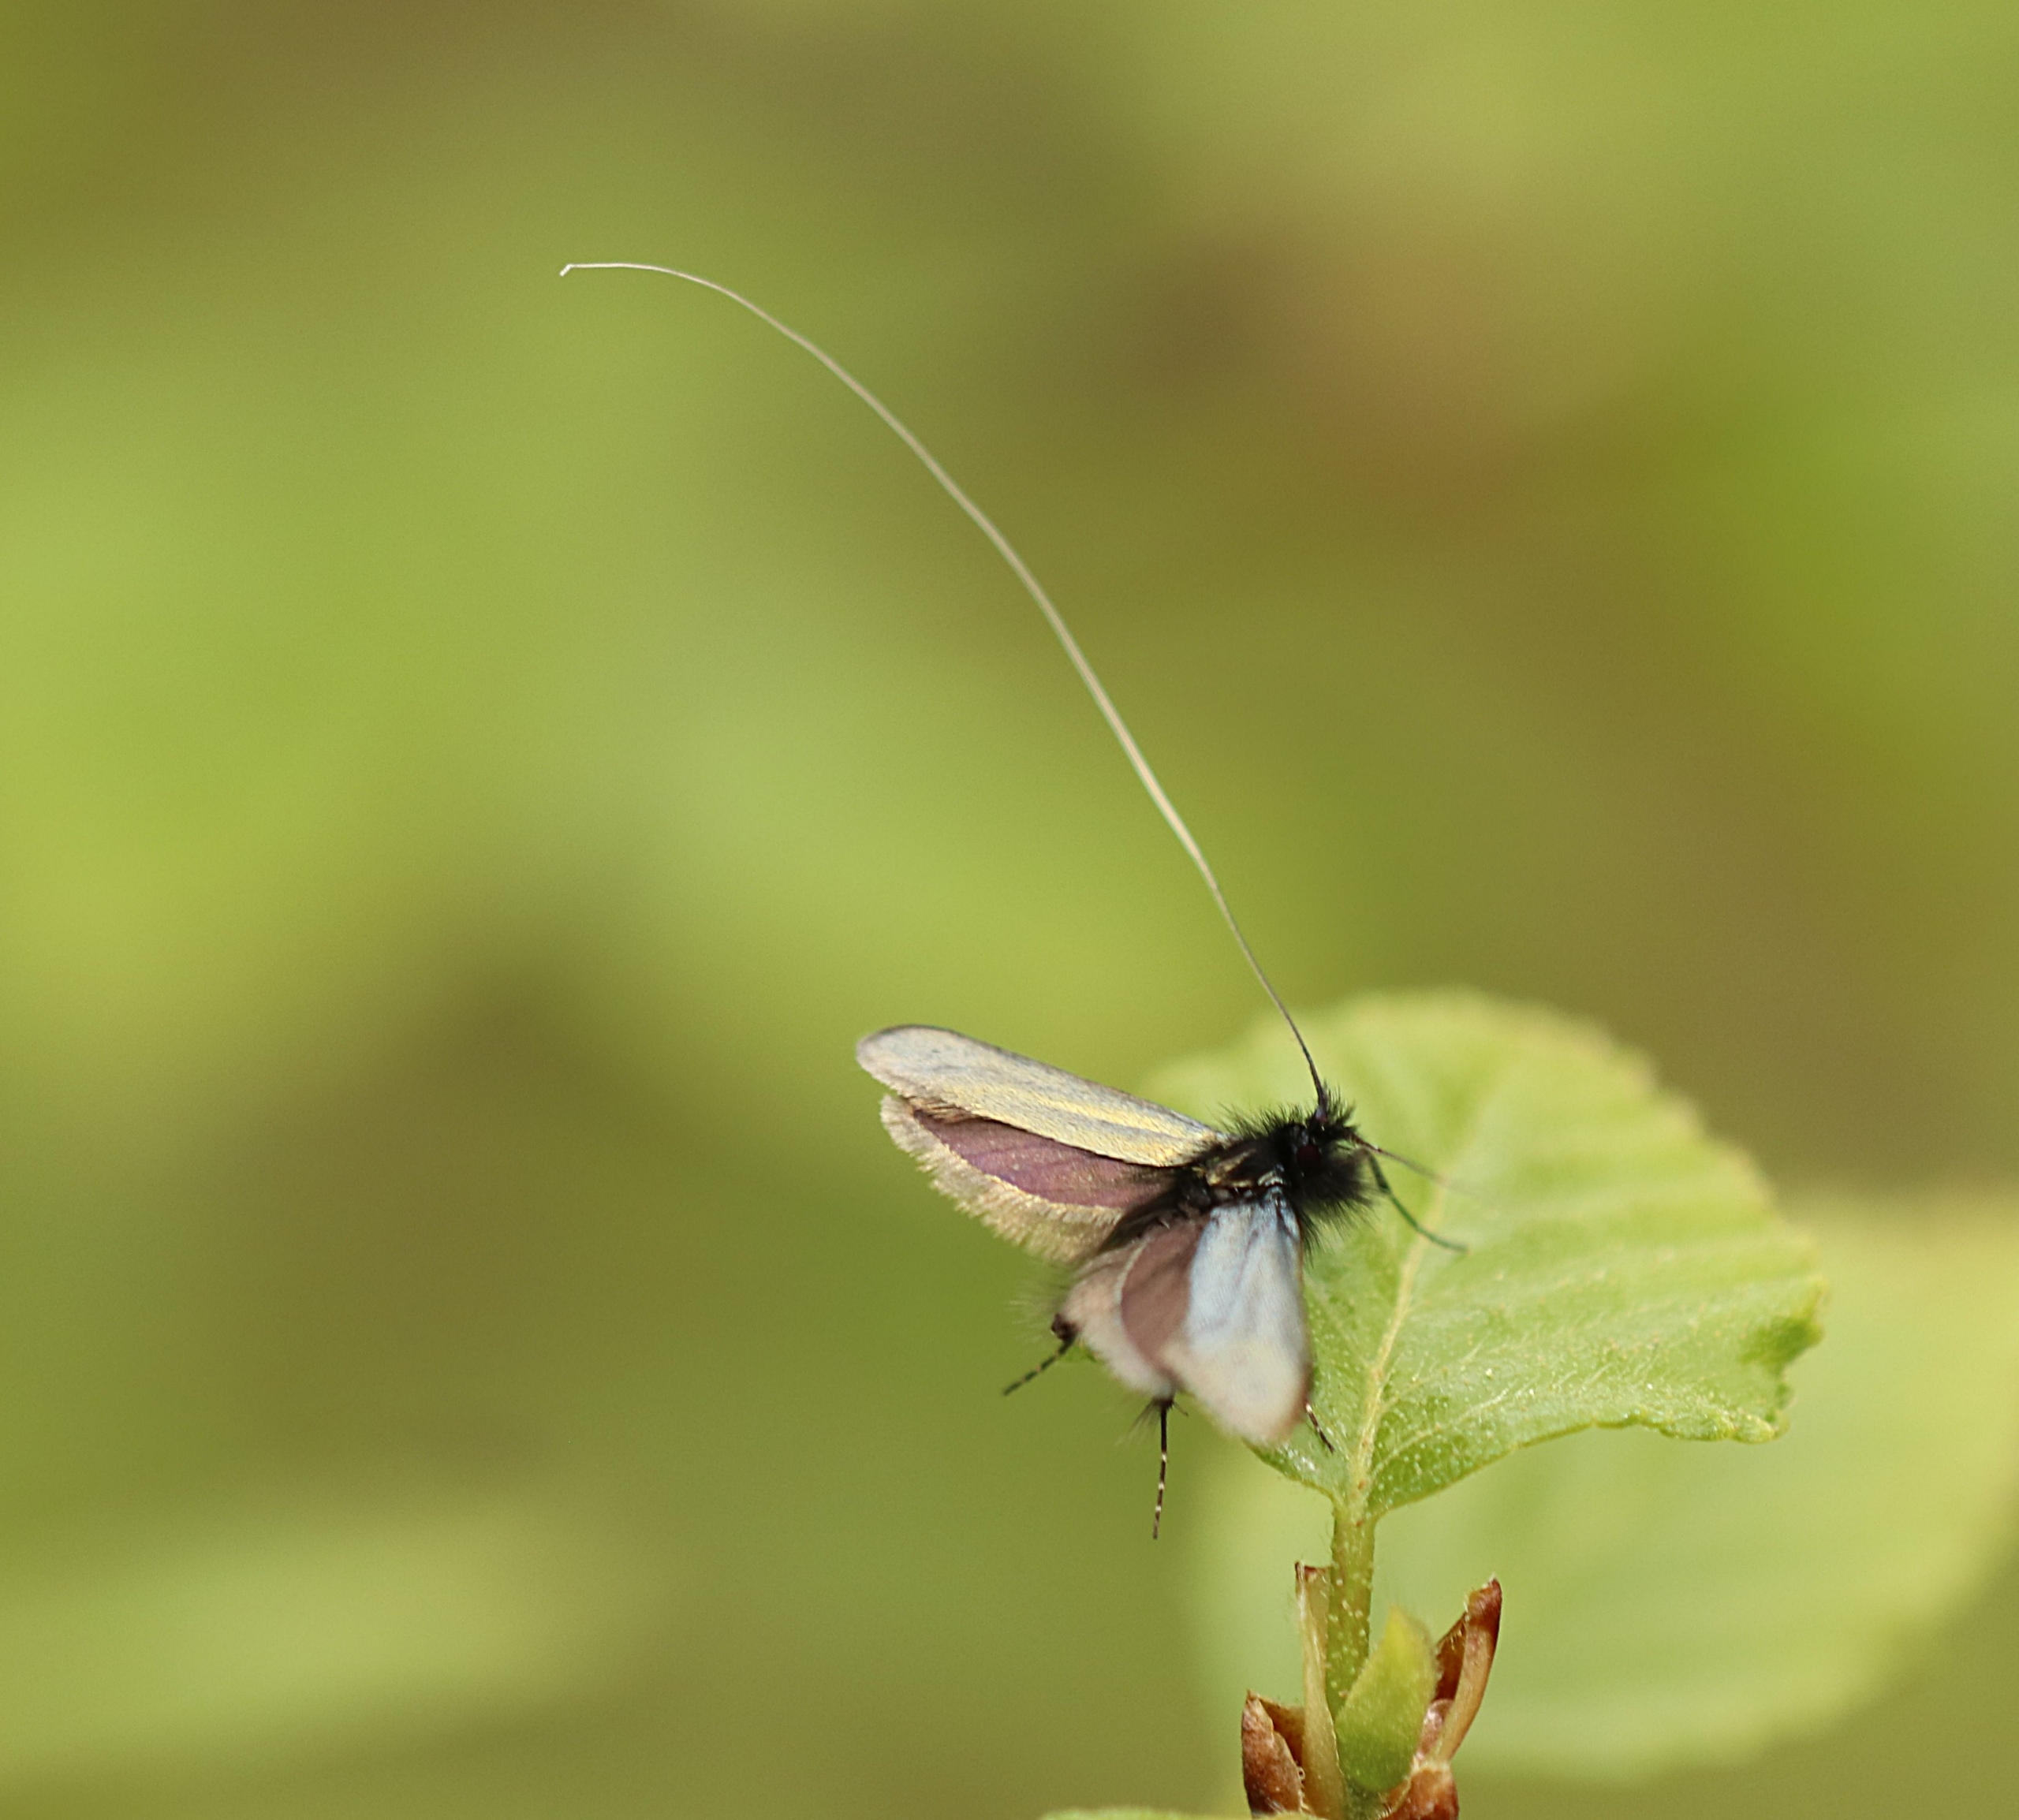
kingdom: Animalia
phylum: Arthropoda
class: Insecta
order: Lepidoptera
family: Adelidae
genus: Adela
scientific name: Adela viridella
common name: Egelanghornsmøl
